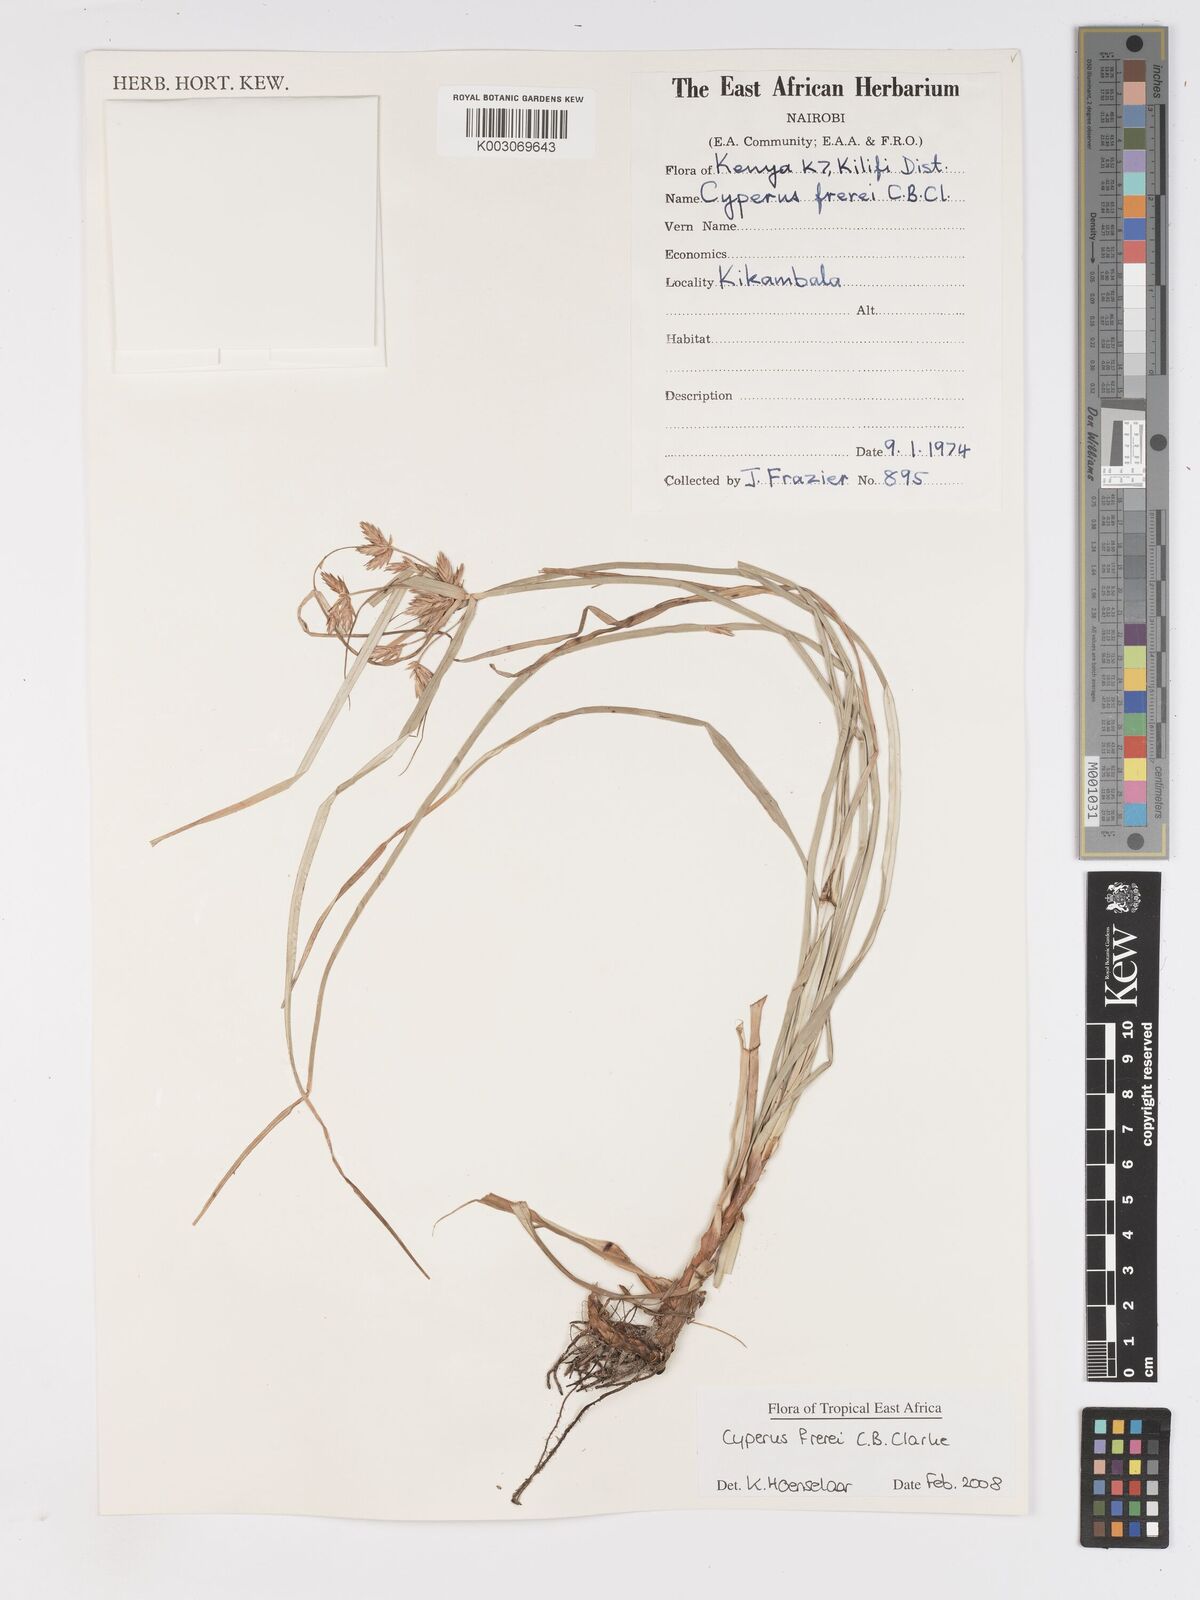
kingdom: Plantae
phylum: Tracheophyta
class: Liliopsida
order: Poales
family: Cyperaceae
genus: Cyperus
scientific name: Cyperus crassipes
